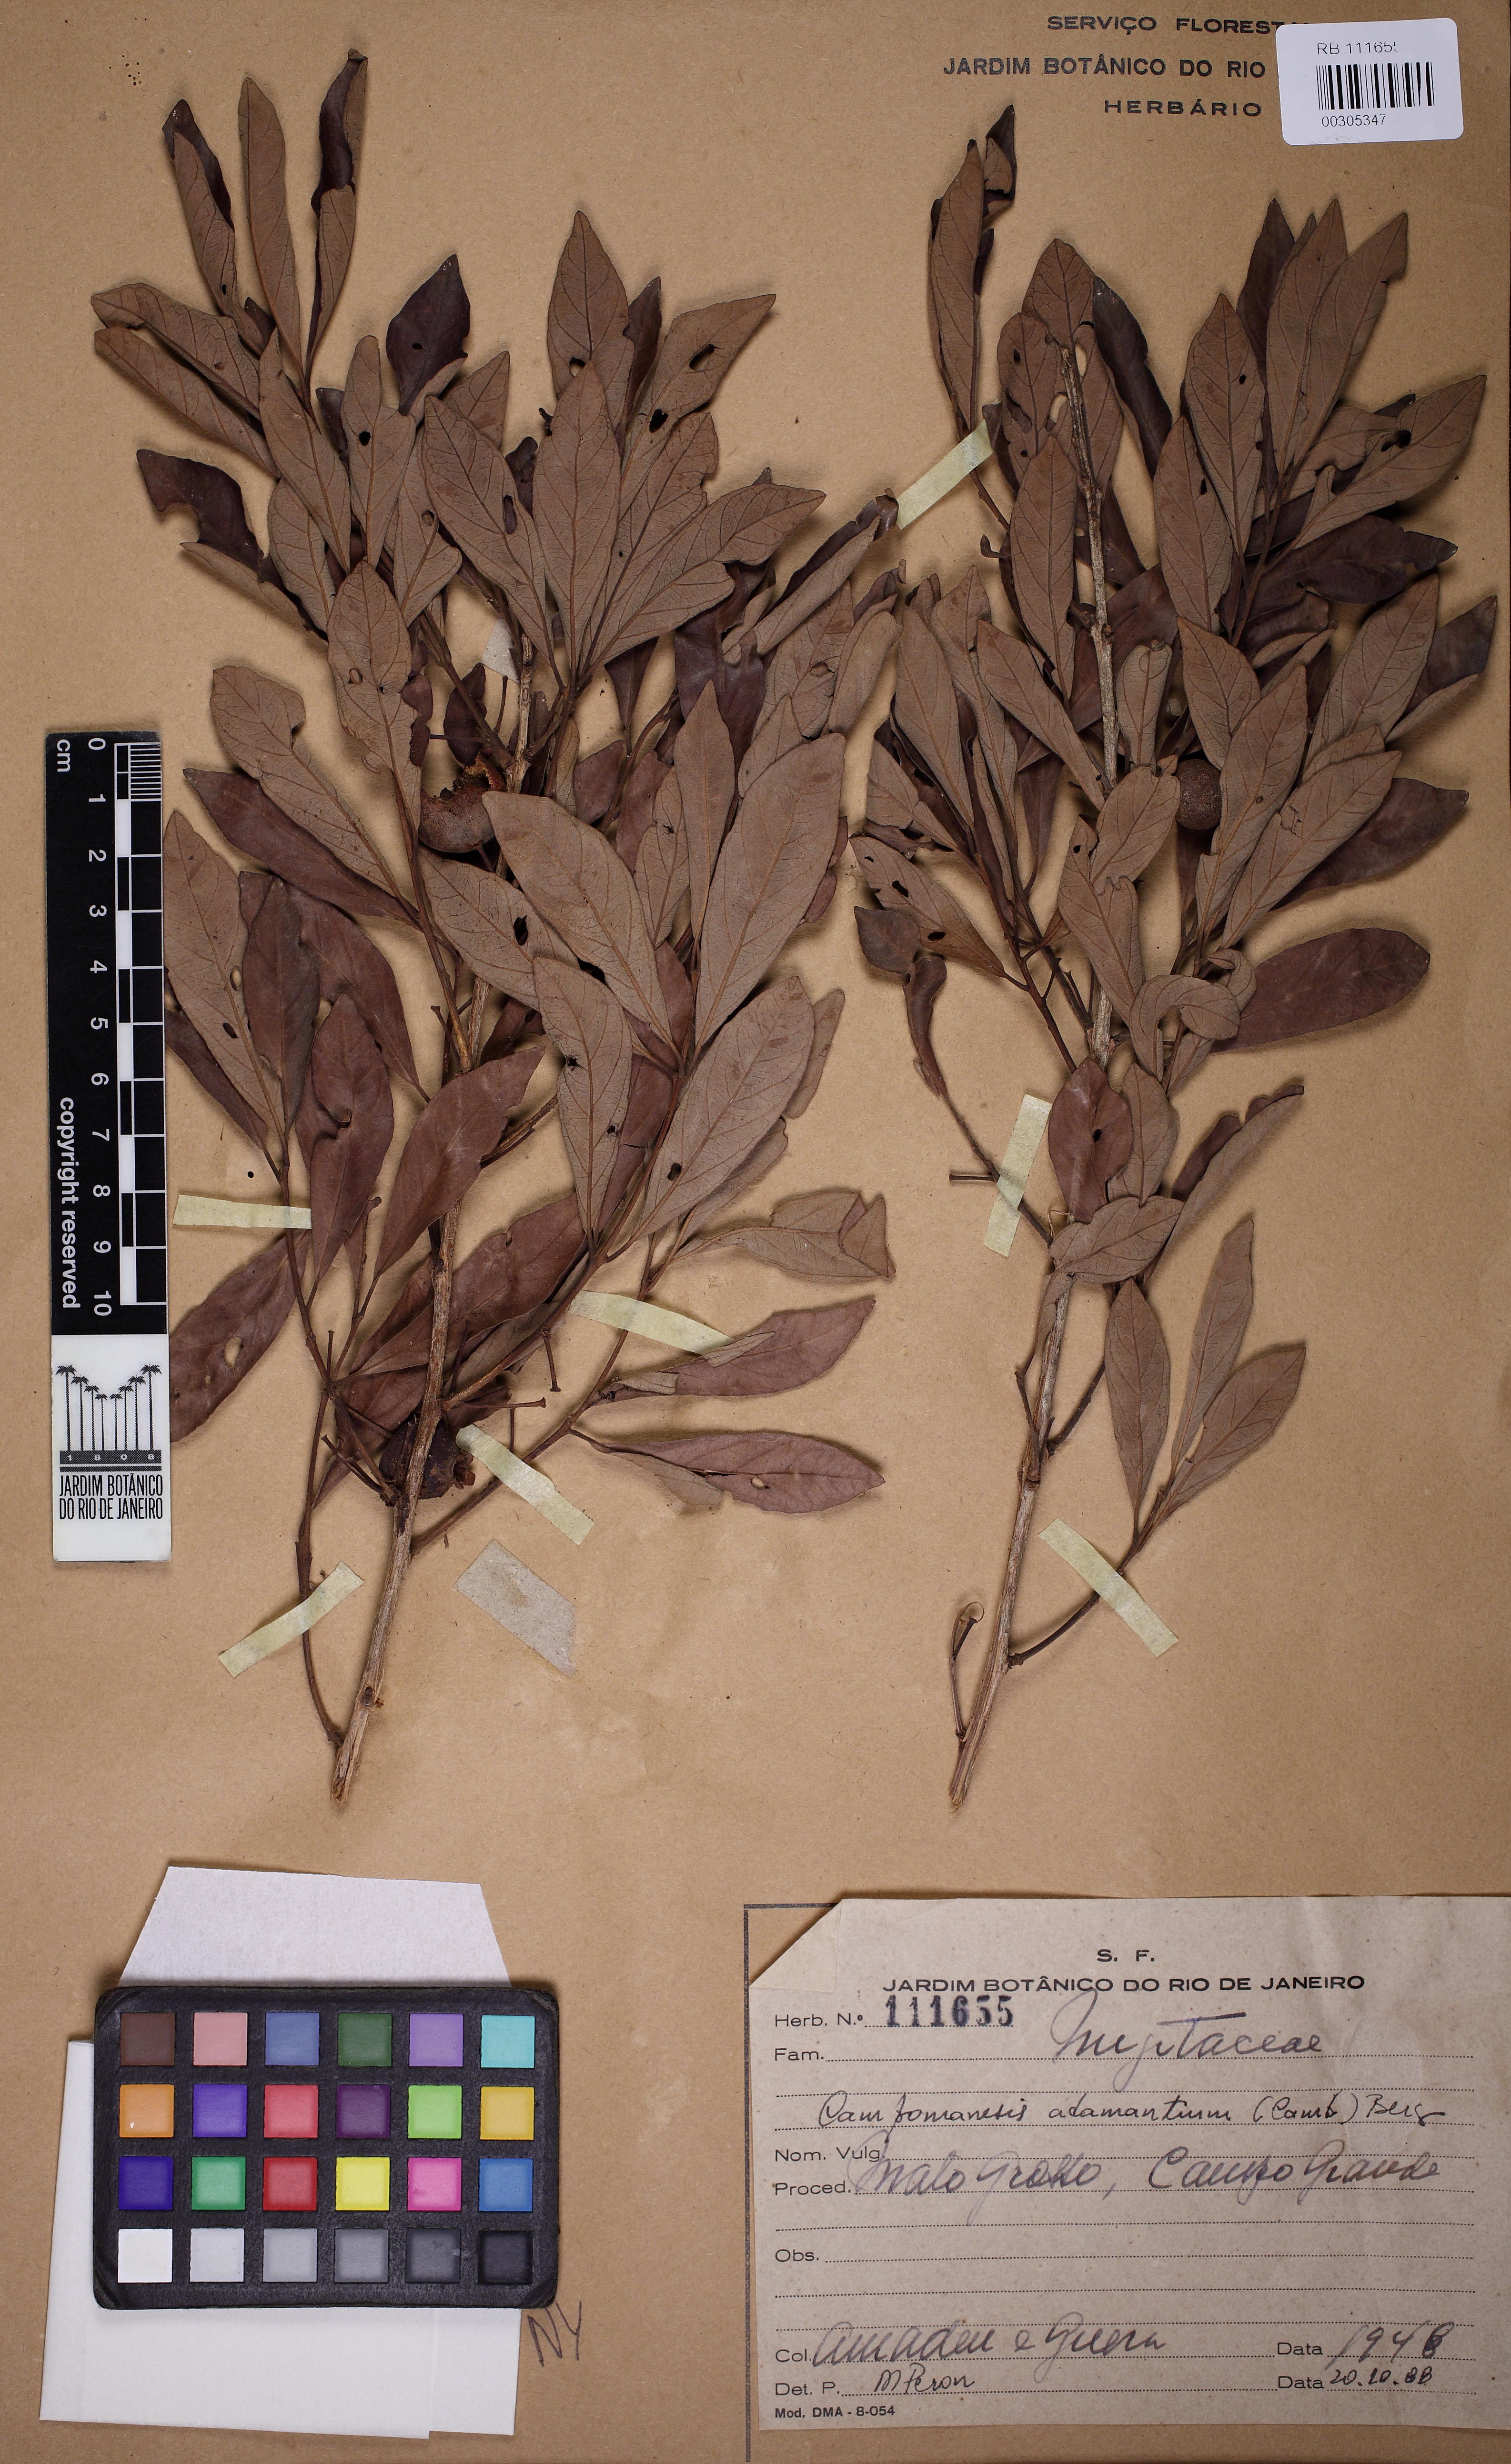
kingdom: Plantae
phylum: Tracheophyta
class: Magnoliopsida
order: Myrtales
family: Myrtaceae
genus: Campomanesia
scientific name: Campomanesia adamantium
